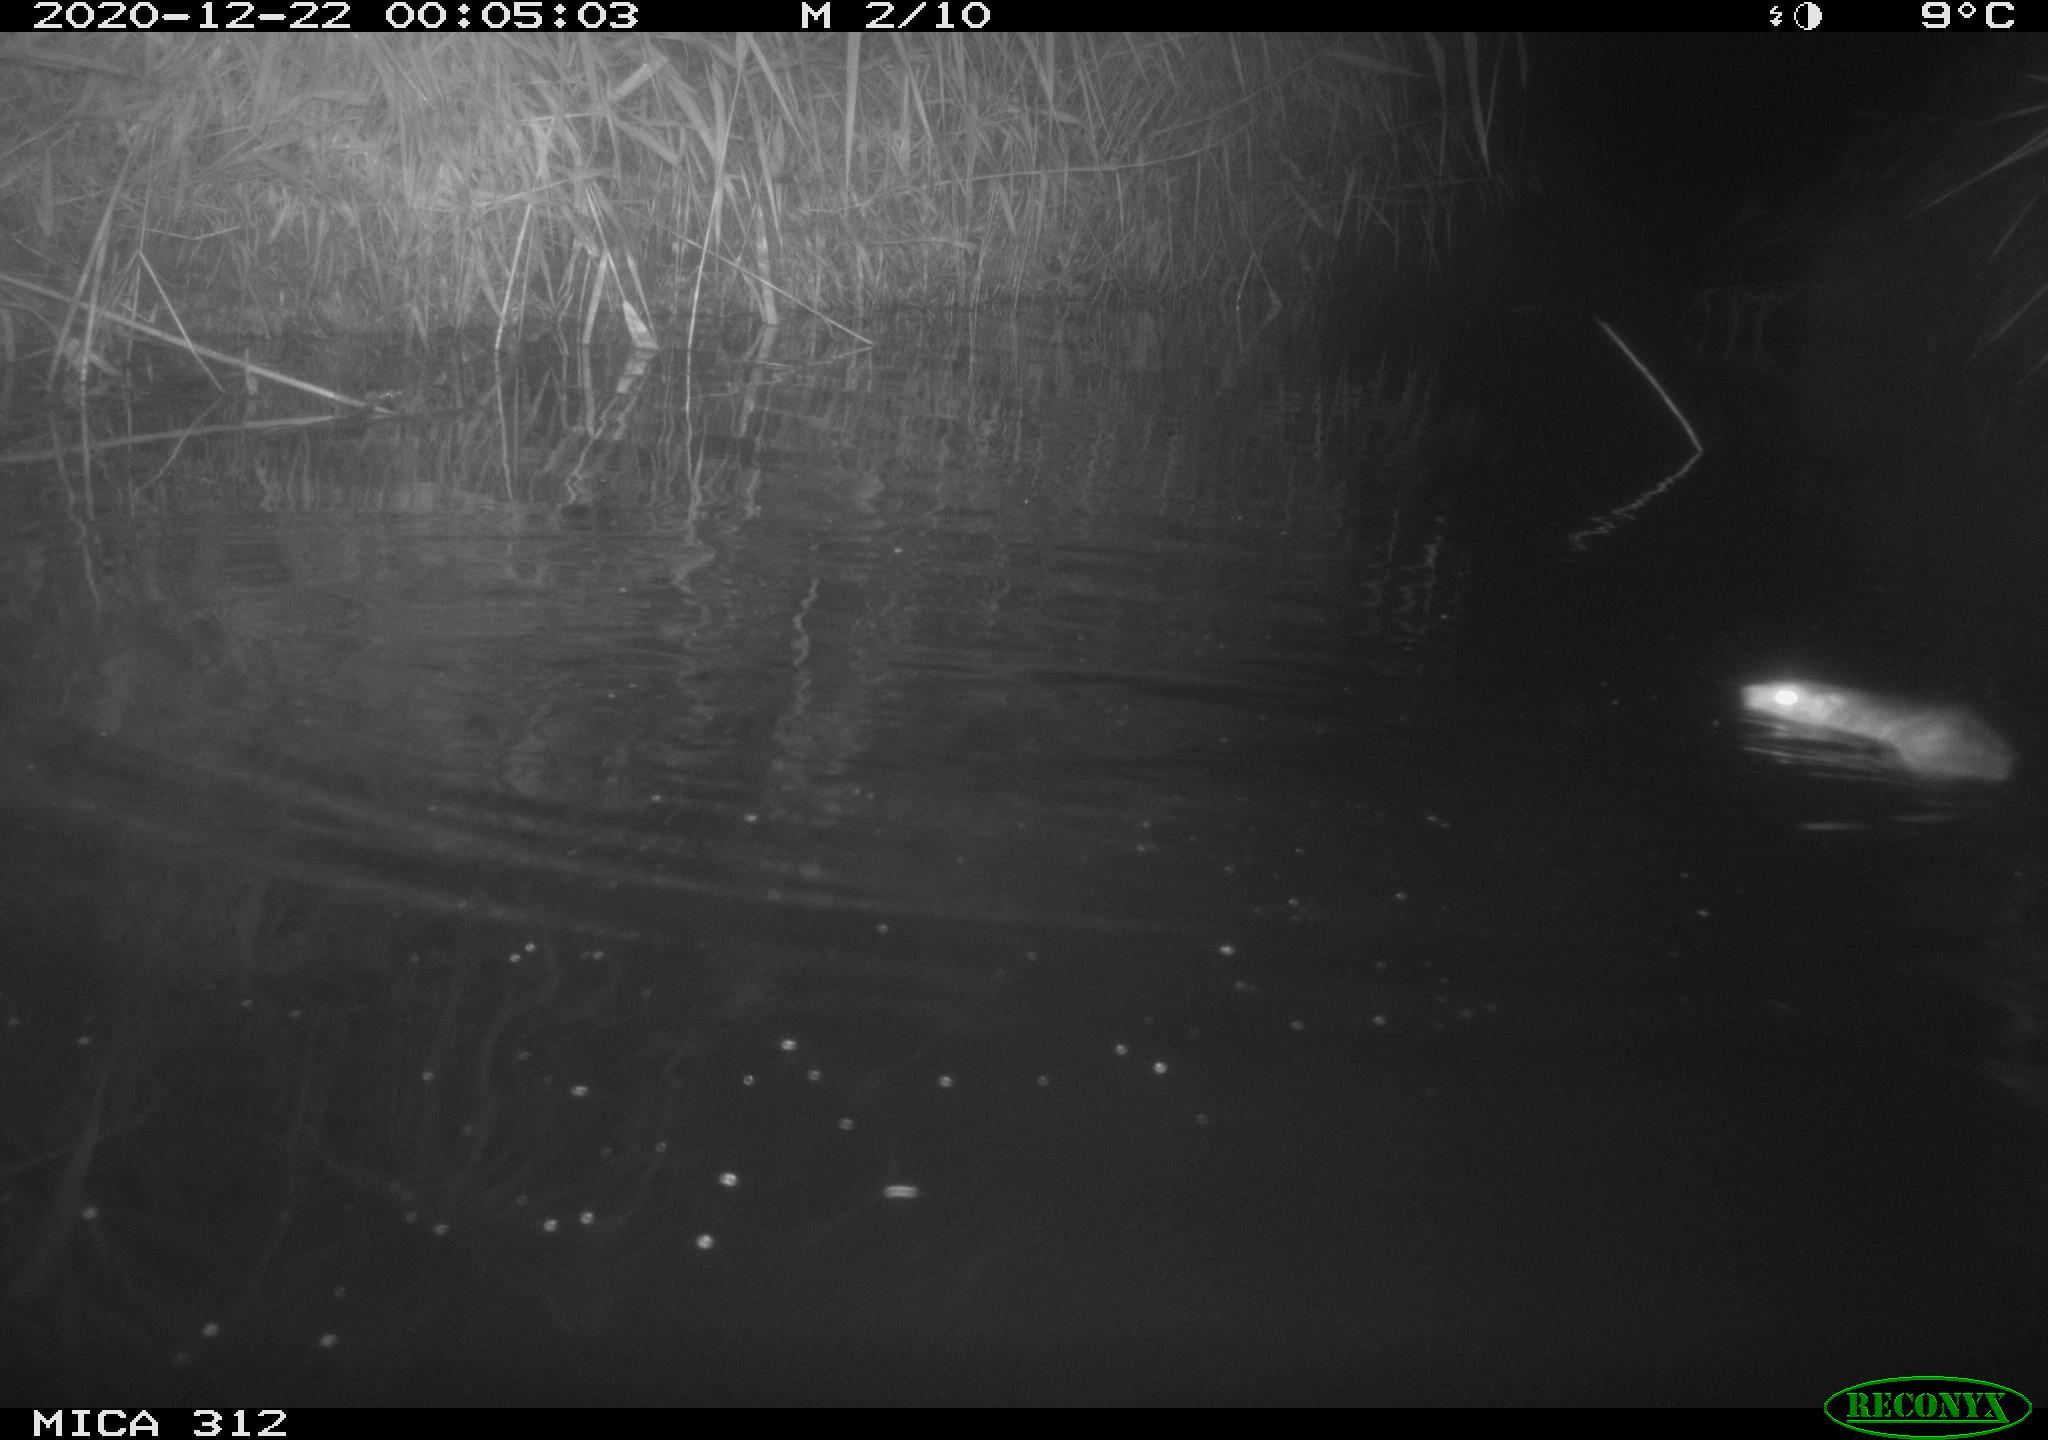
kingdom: Animalia
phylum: Chordata
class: Mammalia
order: Rodentia
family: Muridae
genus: Rattus
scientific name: Rattus norvegicus
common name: Brown rat
